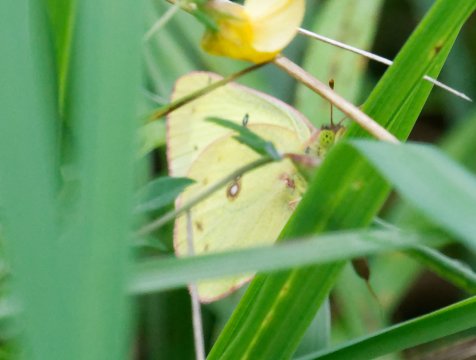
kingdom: Animalia
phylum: Arthropoda
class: Insecta
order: Lepidoptera
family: Pieridae
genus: Colias
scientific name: Colias philodice
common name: Clouded Sulphur
